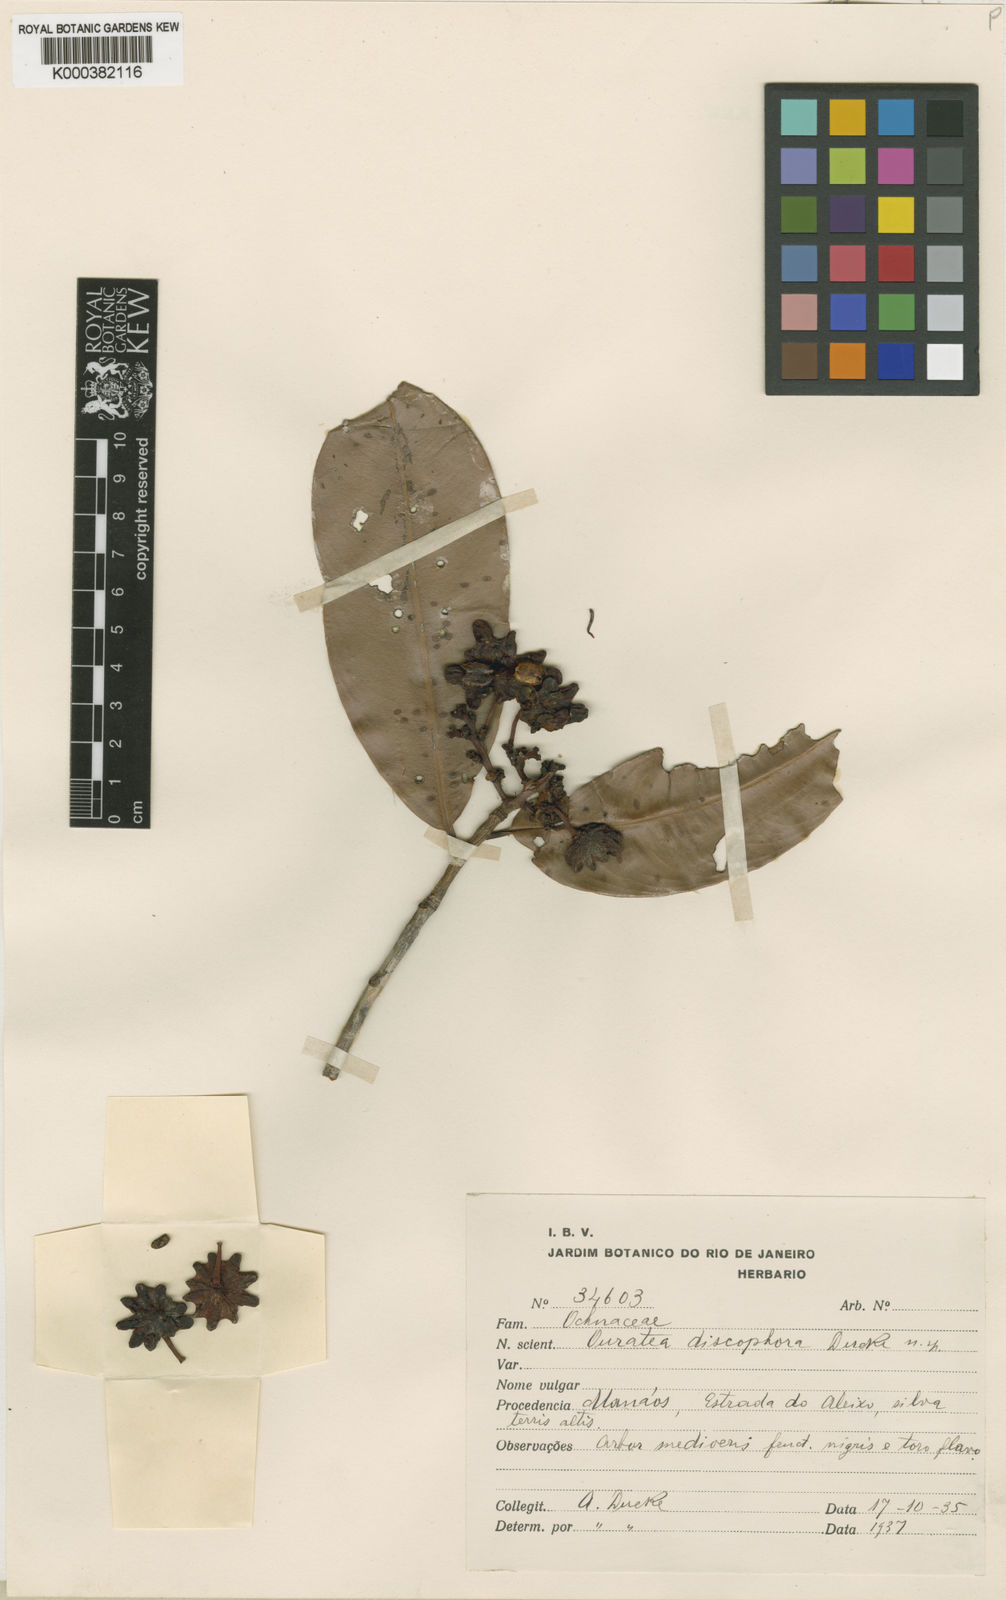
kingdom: Plantae
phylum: Tracheophyta
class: Magnoliopsida
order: Malpighiales
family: Ochnaceae
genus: Ouratea
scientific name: Ouratea discophora
